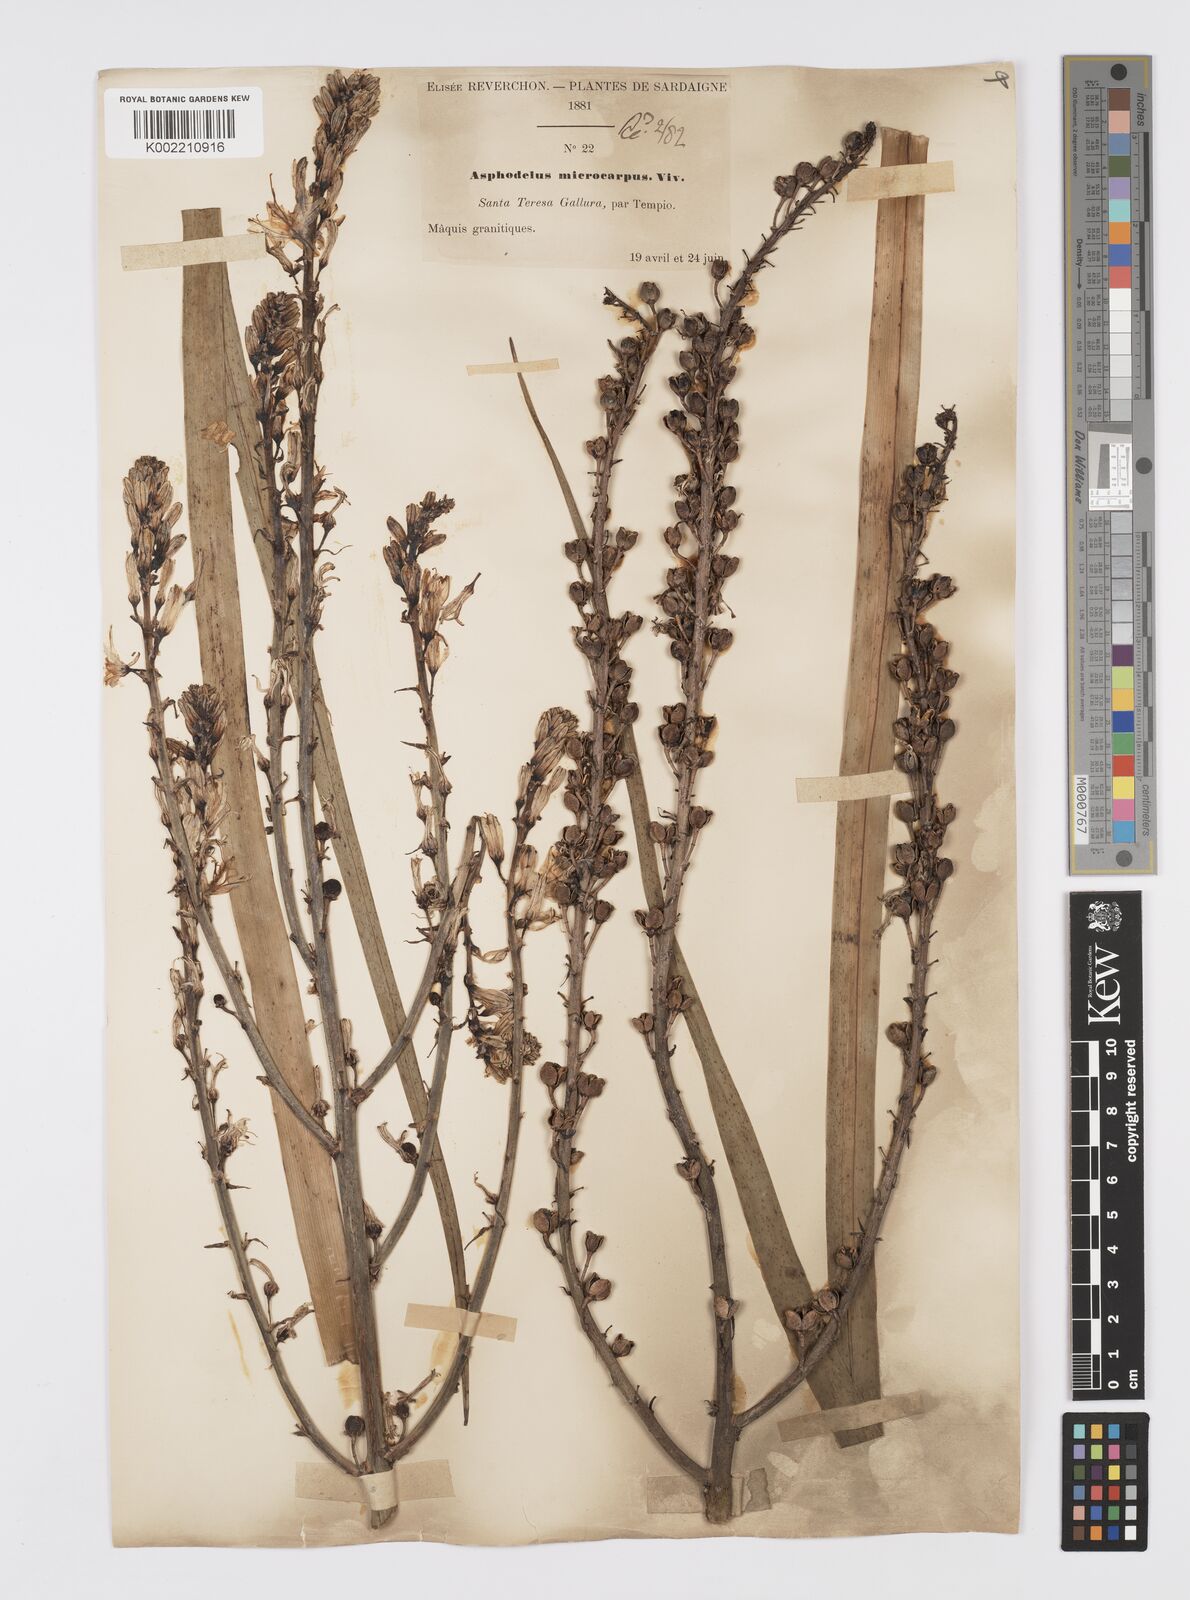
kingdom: Plantae
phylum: Tracheophyta
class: Liliopsida
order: Asparagales
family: Asphodelaceae
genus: Asphodelus
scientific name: Asphodelus ramosus
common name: Silverrod
